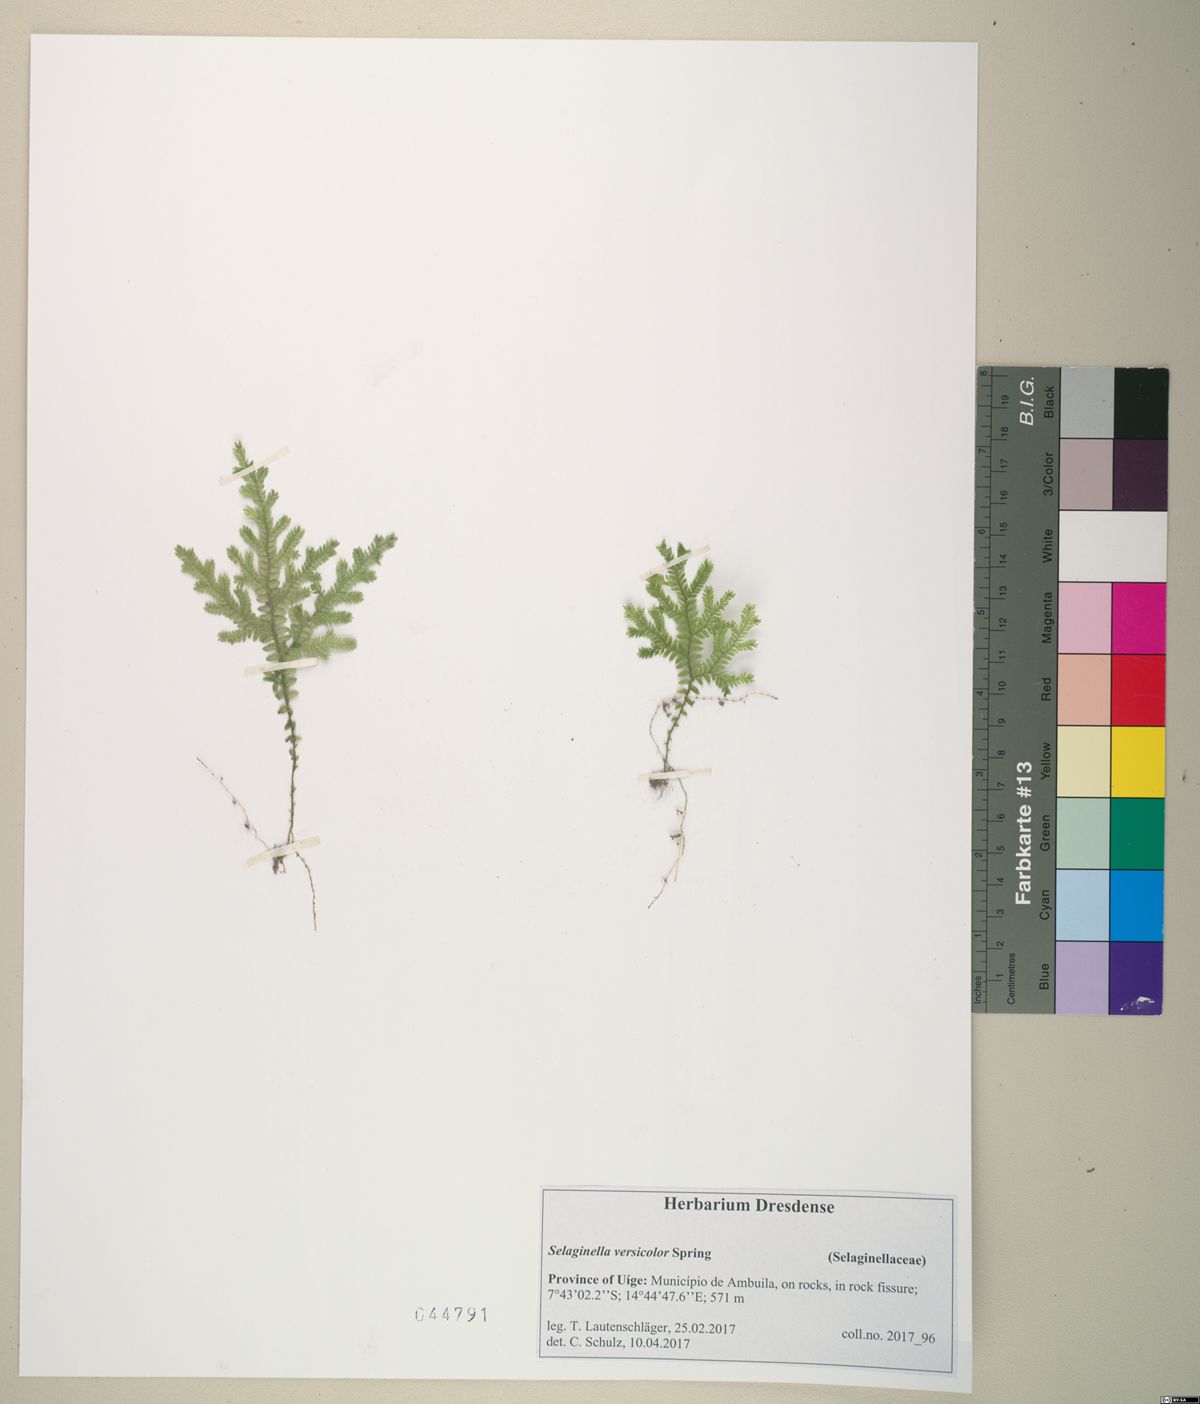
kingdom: Plantae
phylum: Tracheophyta
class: Lycopodiopsida
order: Selaginellales
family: Selaginellaceae
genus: Selaginella
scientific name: Selaginella versicolor
